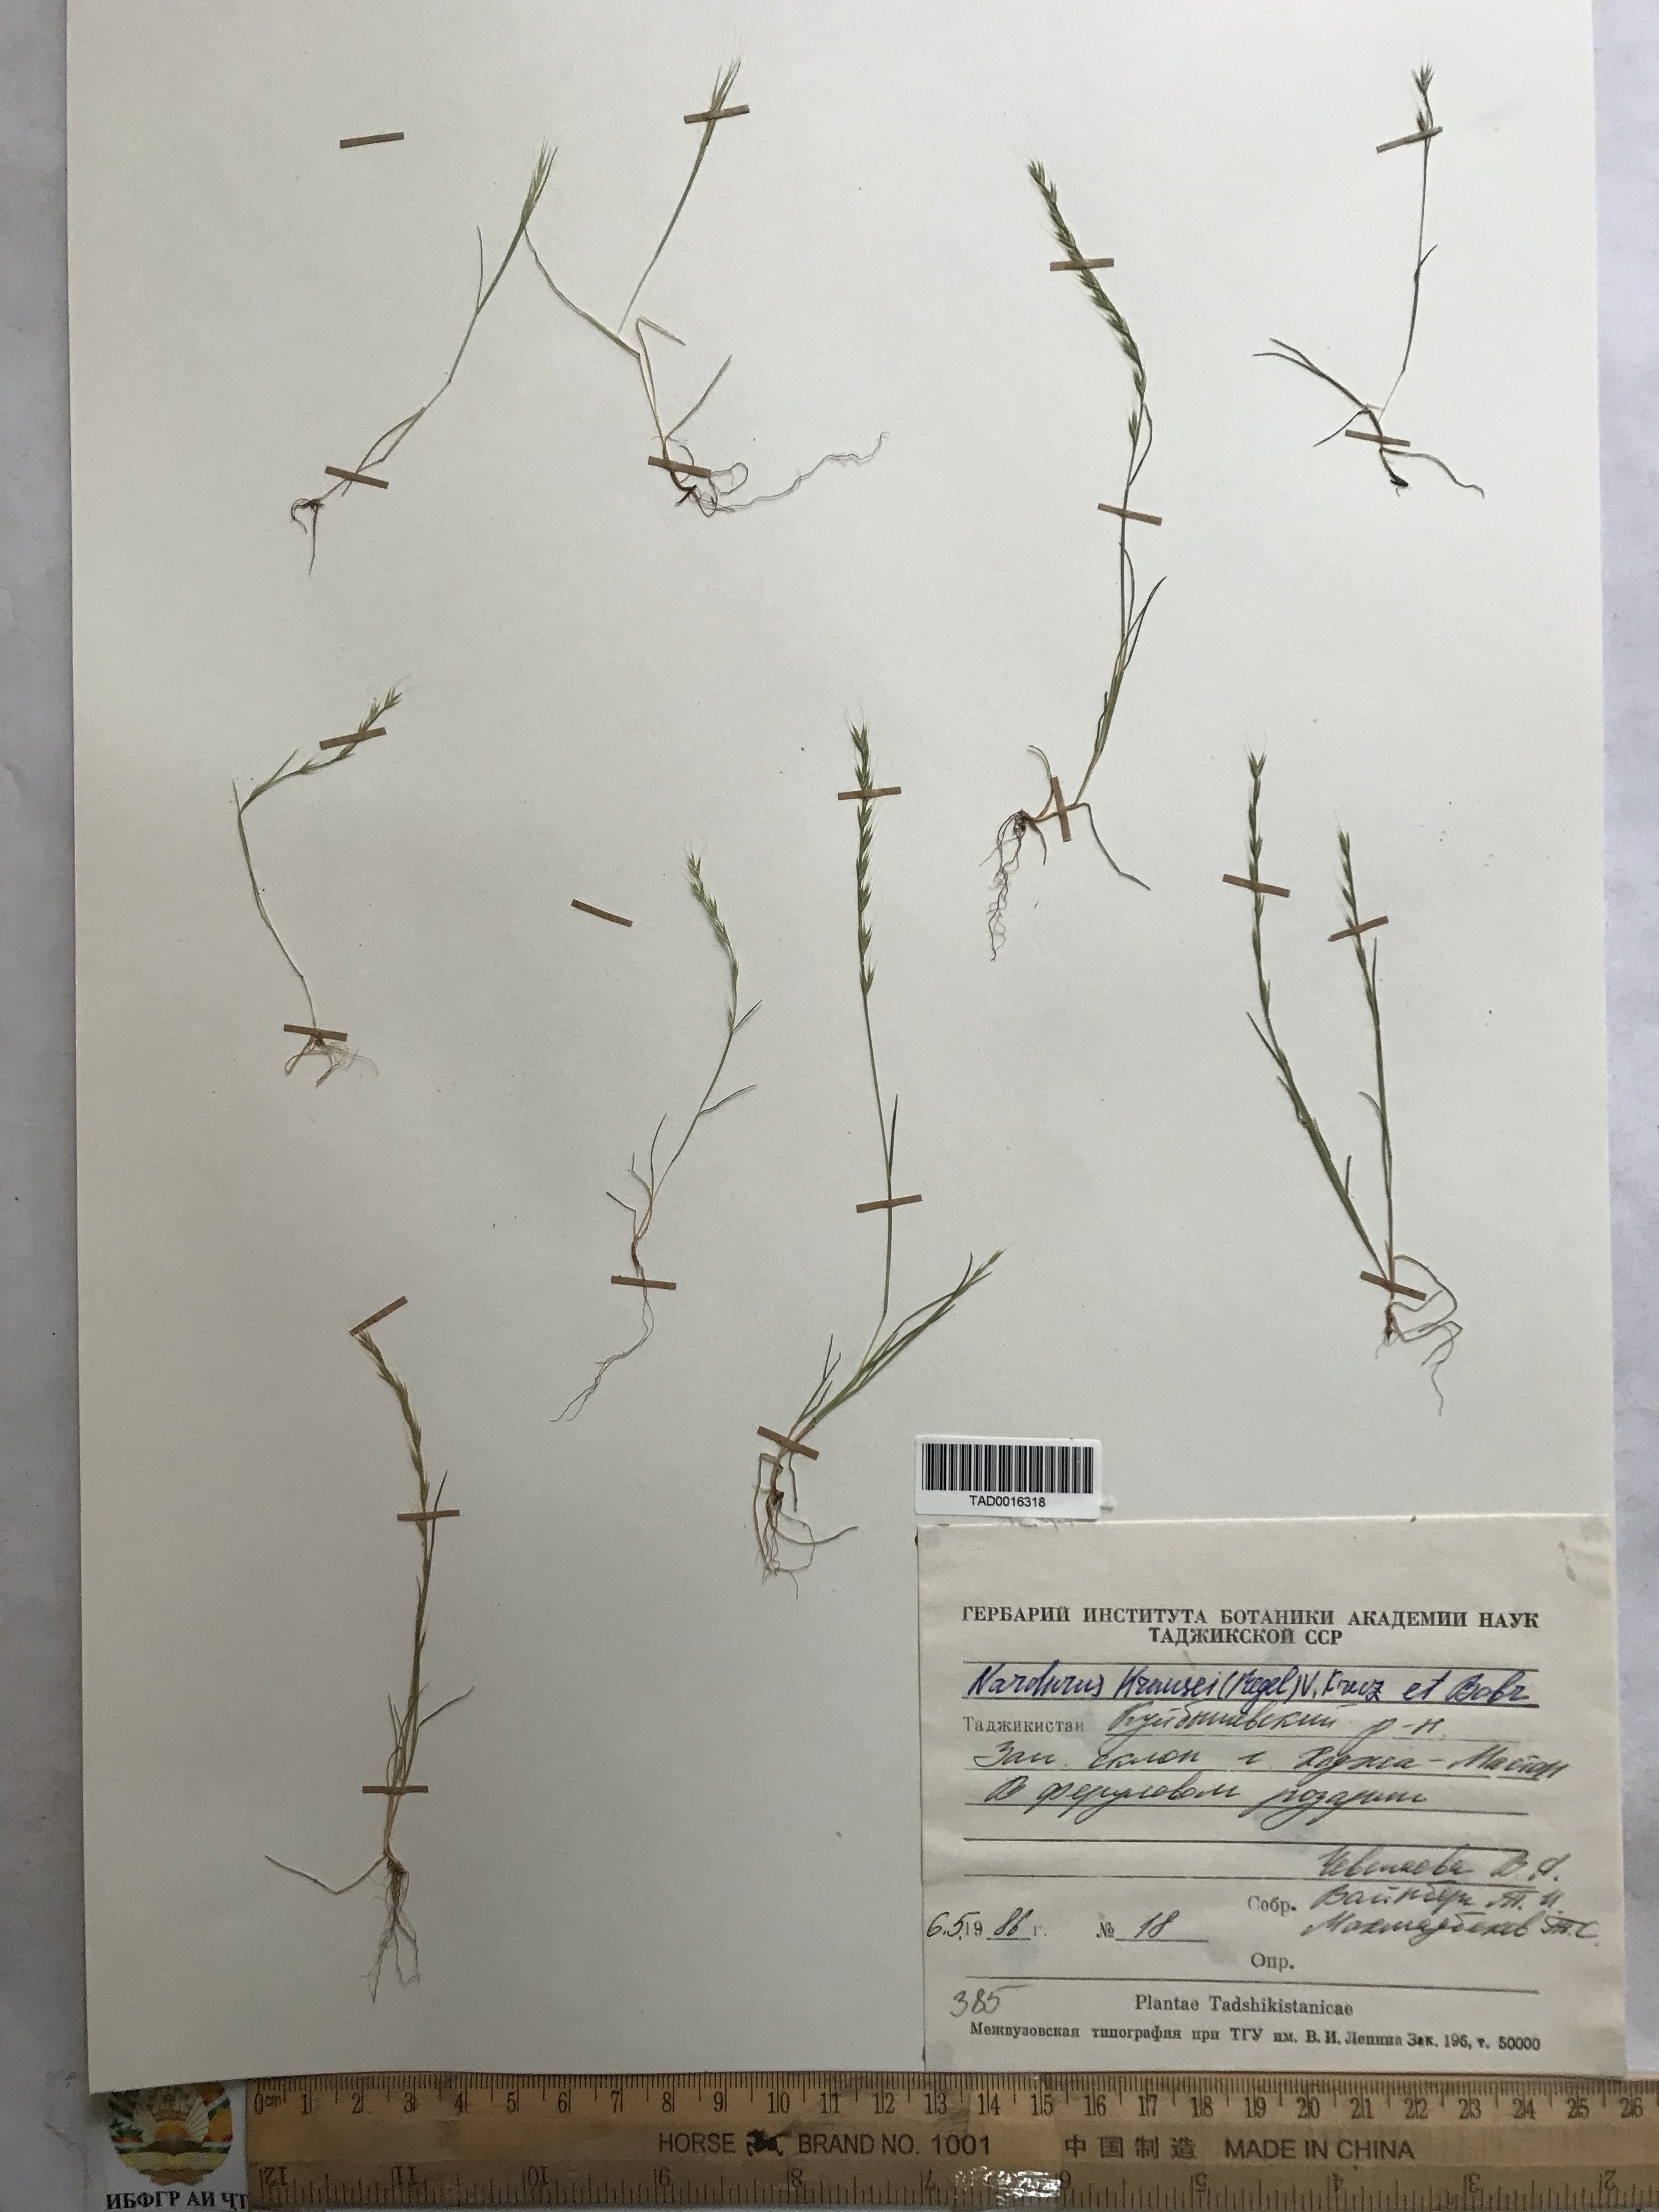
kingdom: Plantae
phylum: Tracheophyta
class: Liliopsida
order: Poales
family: Poaceae
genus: Festuca
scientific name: Festuca maritima
